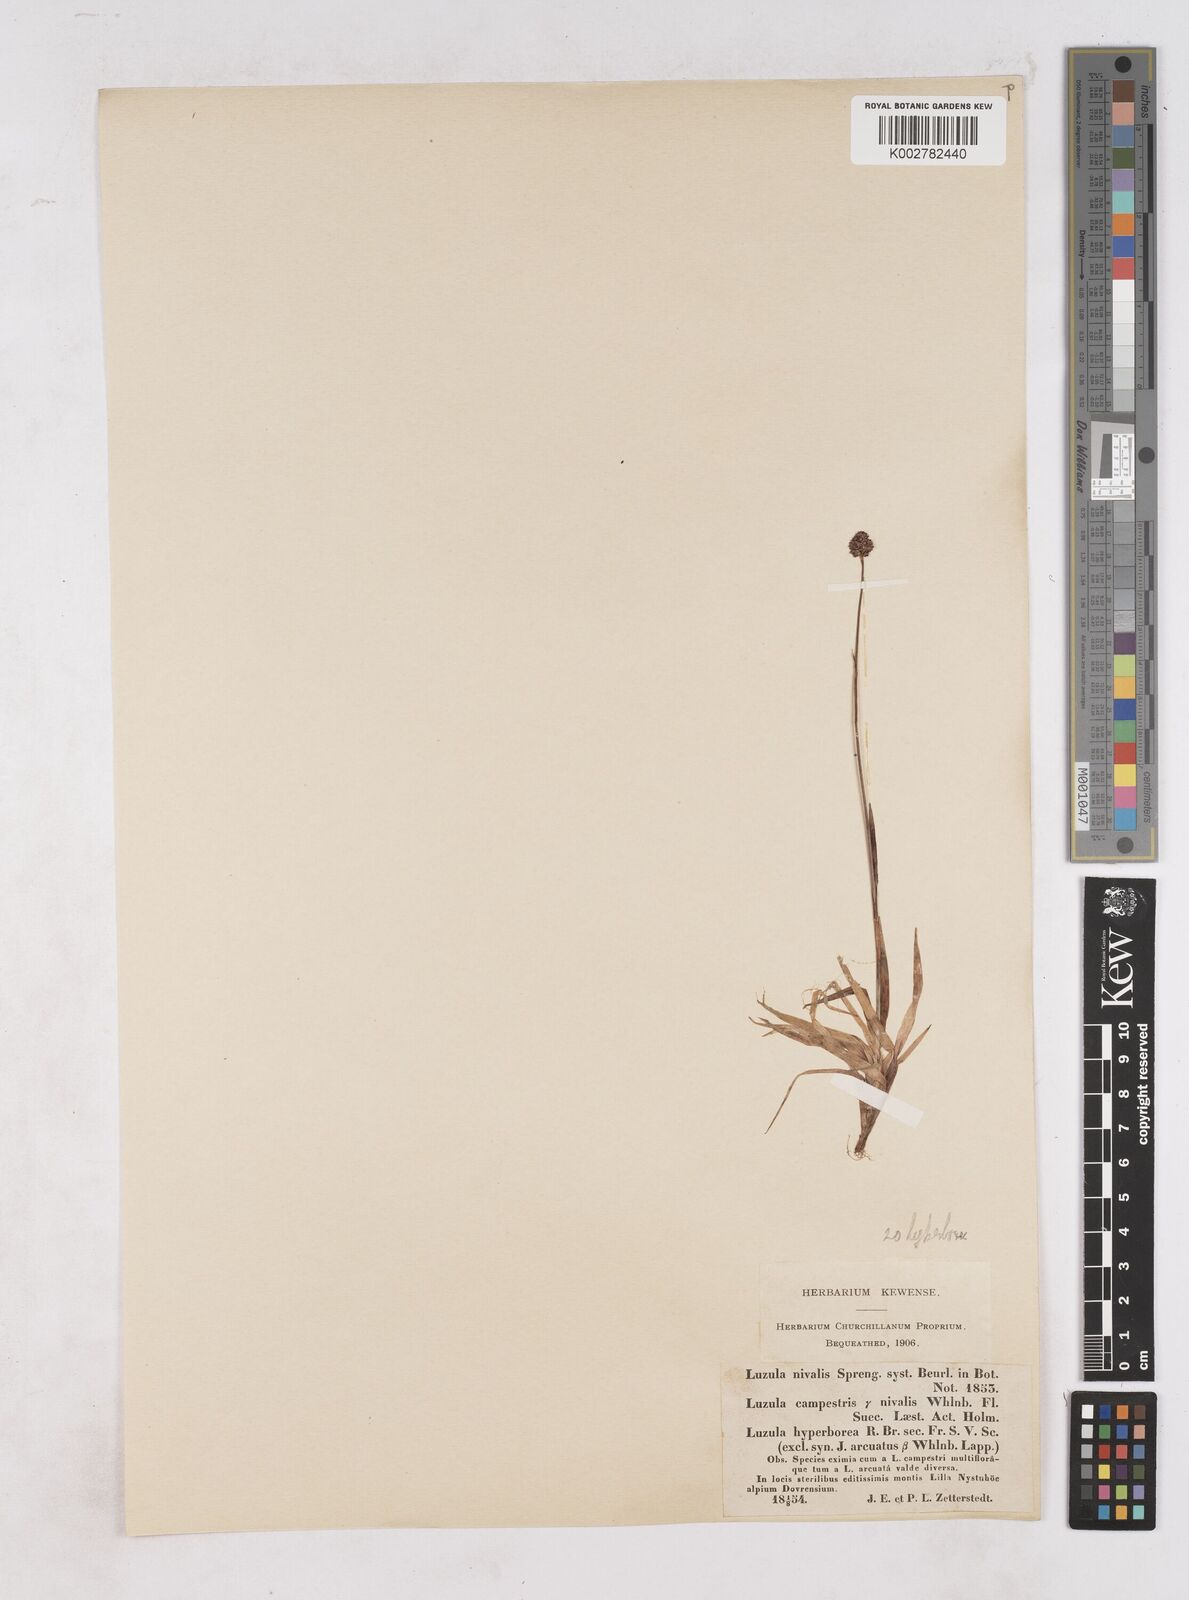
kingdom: Plantae
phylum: Tracheophyta
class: Liliopsida
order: Poales
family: Juncaceae
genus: Luzula
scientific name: Luzula nivalis
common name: Arctic woodrush
